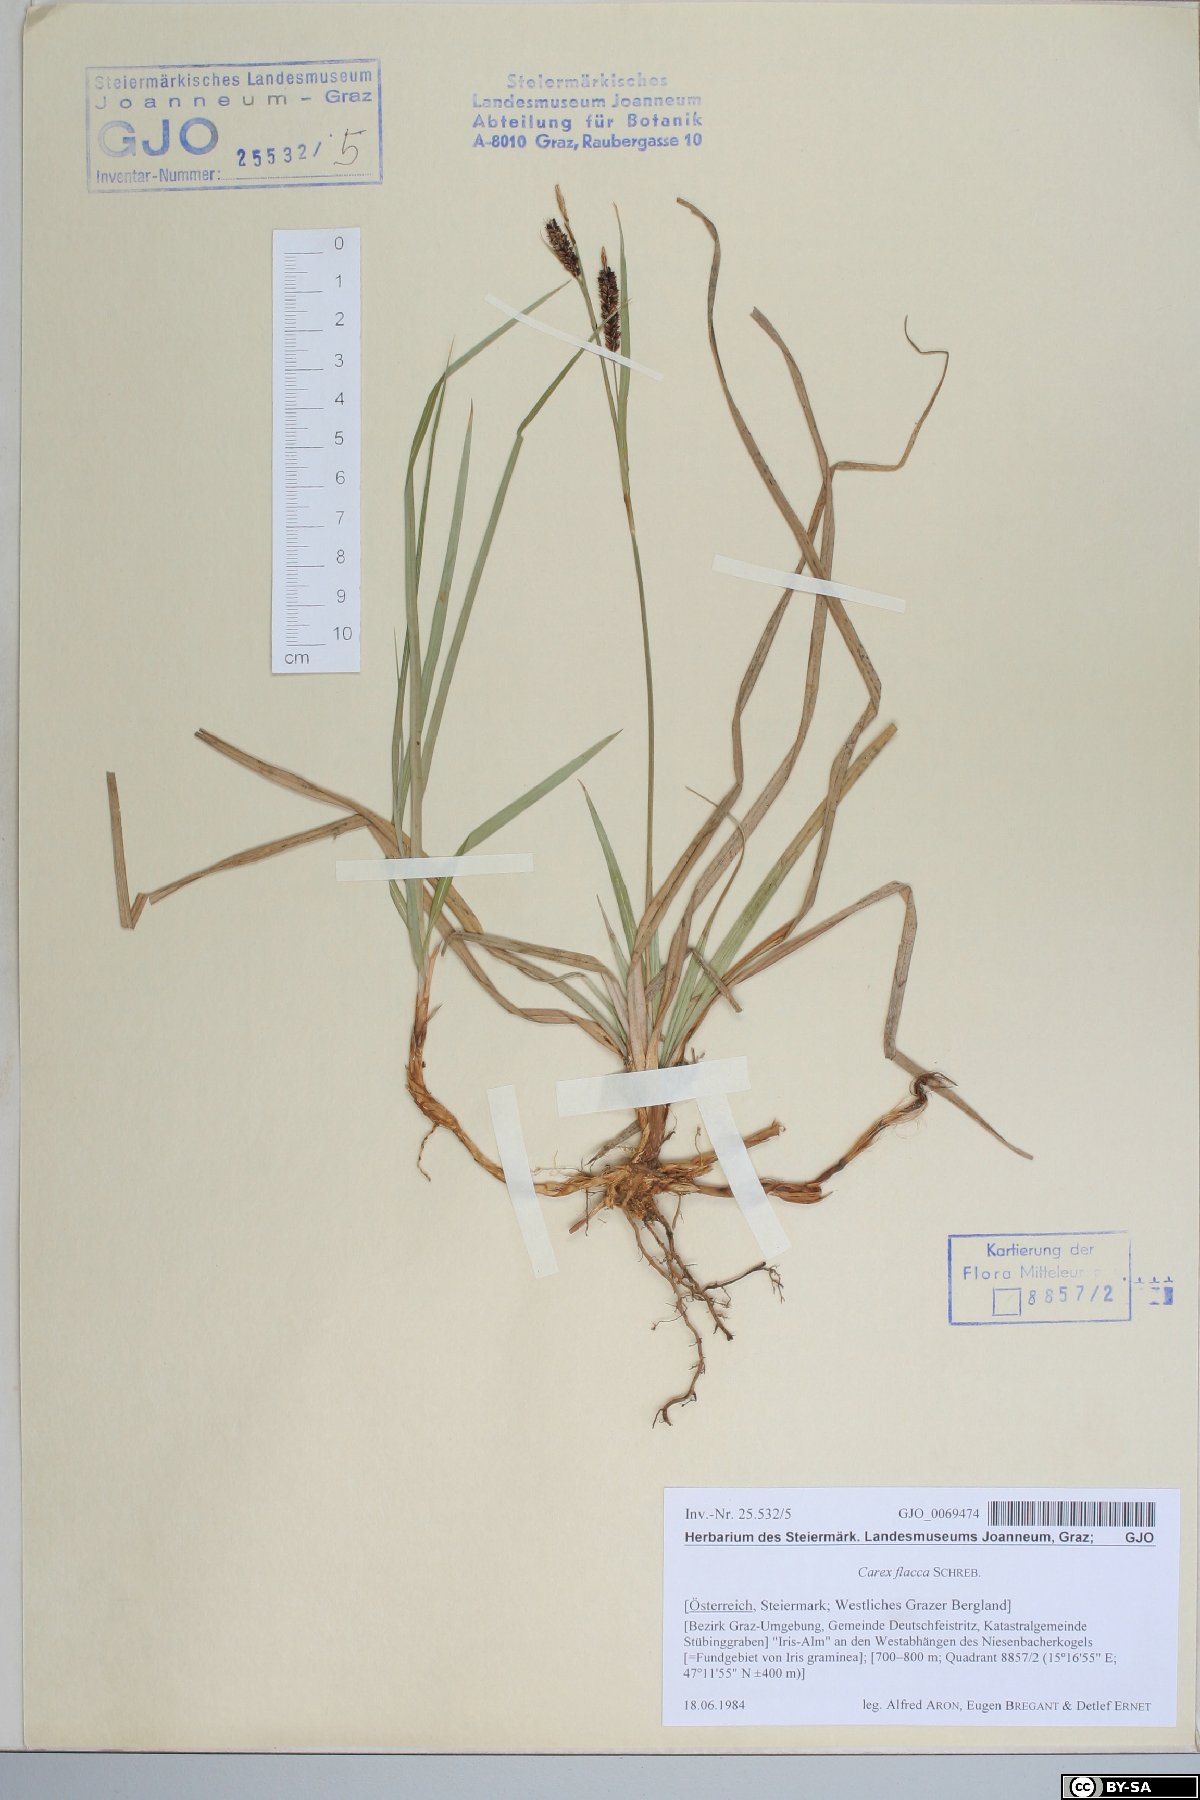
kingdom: Plantae
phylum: Tracheophyta
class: Liliopsida
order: Poales
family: Cyperaceae
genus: Carex
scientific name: Carex flacca
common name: Glaucous sedge
